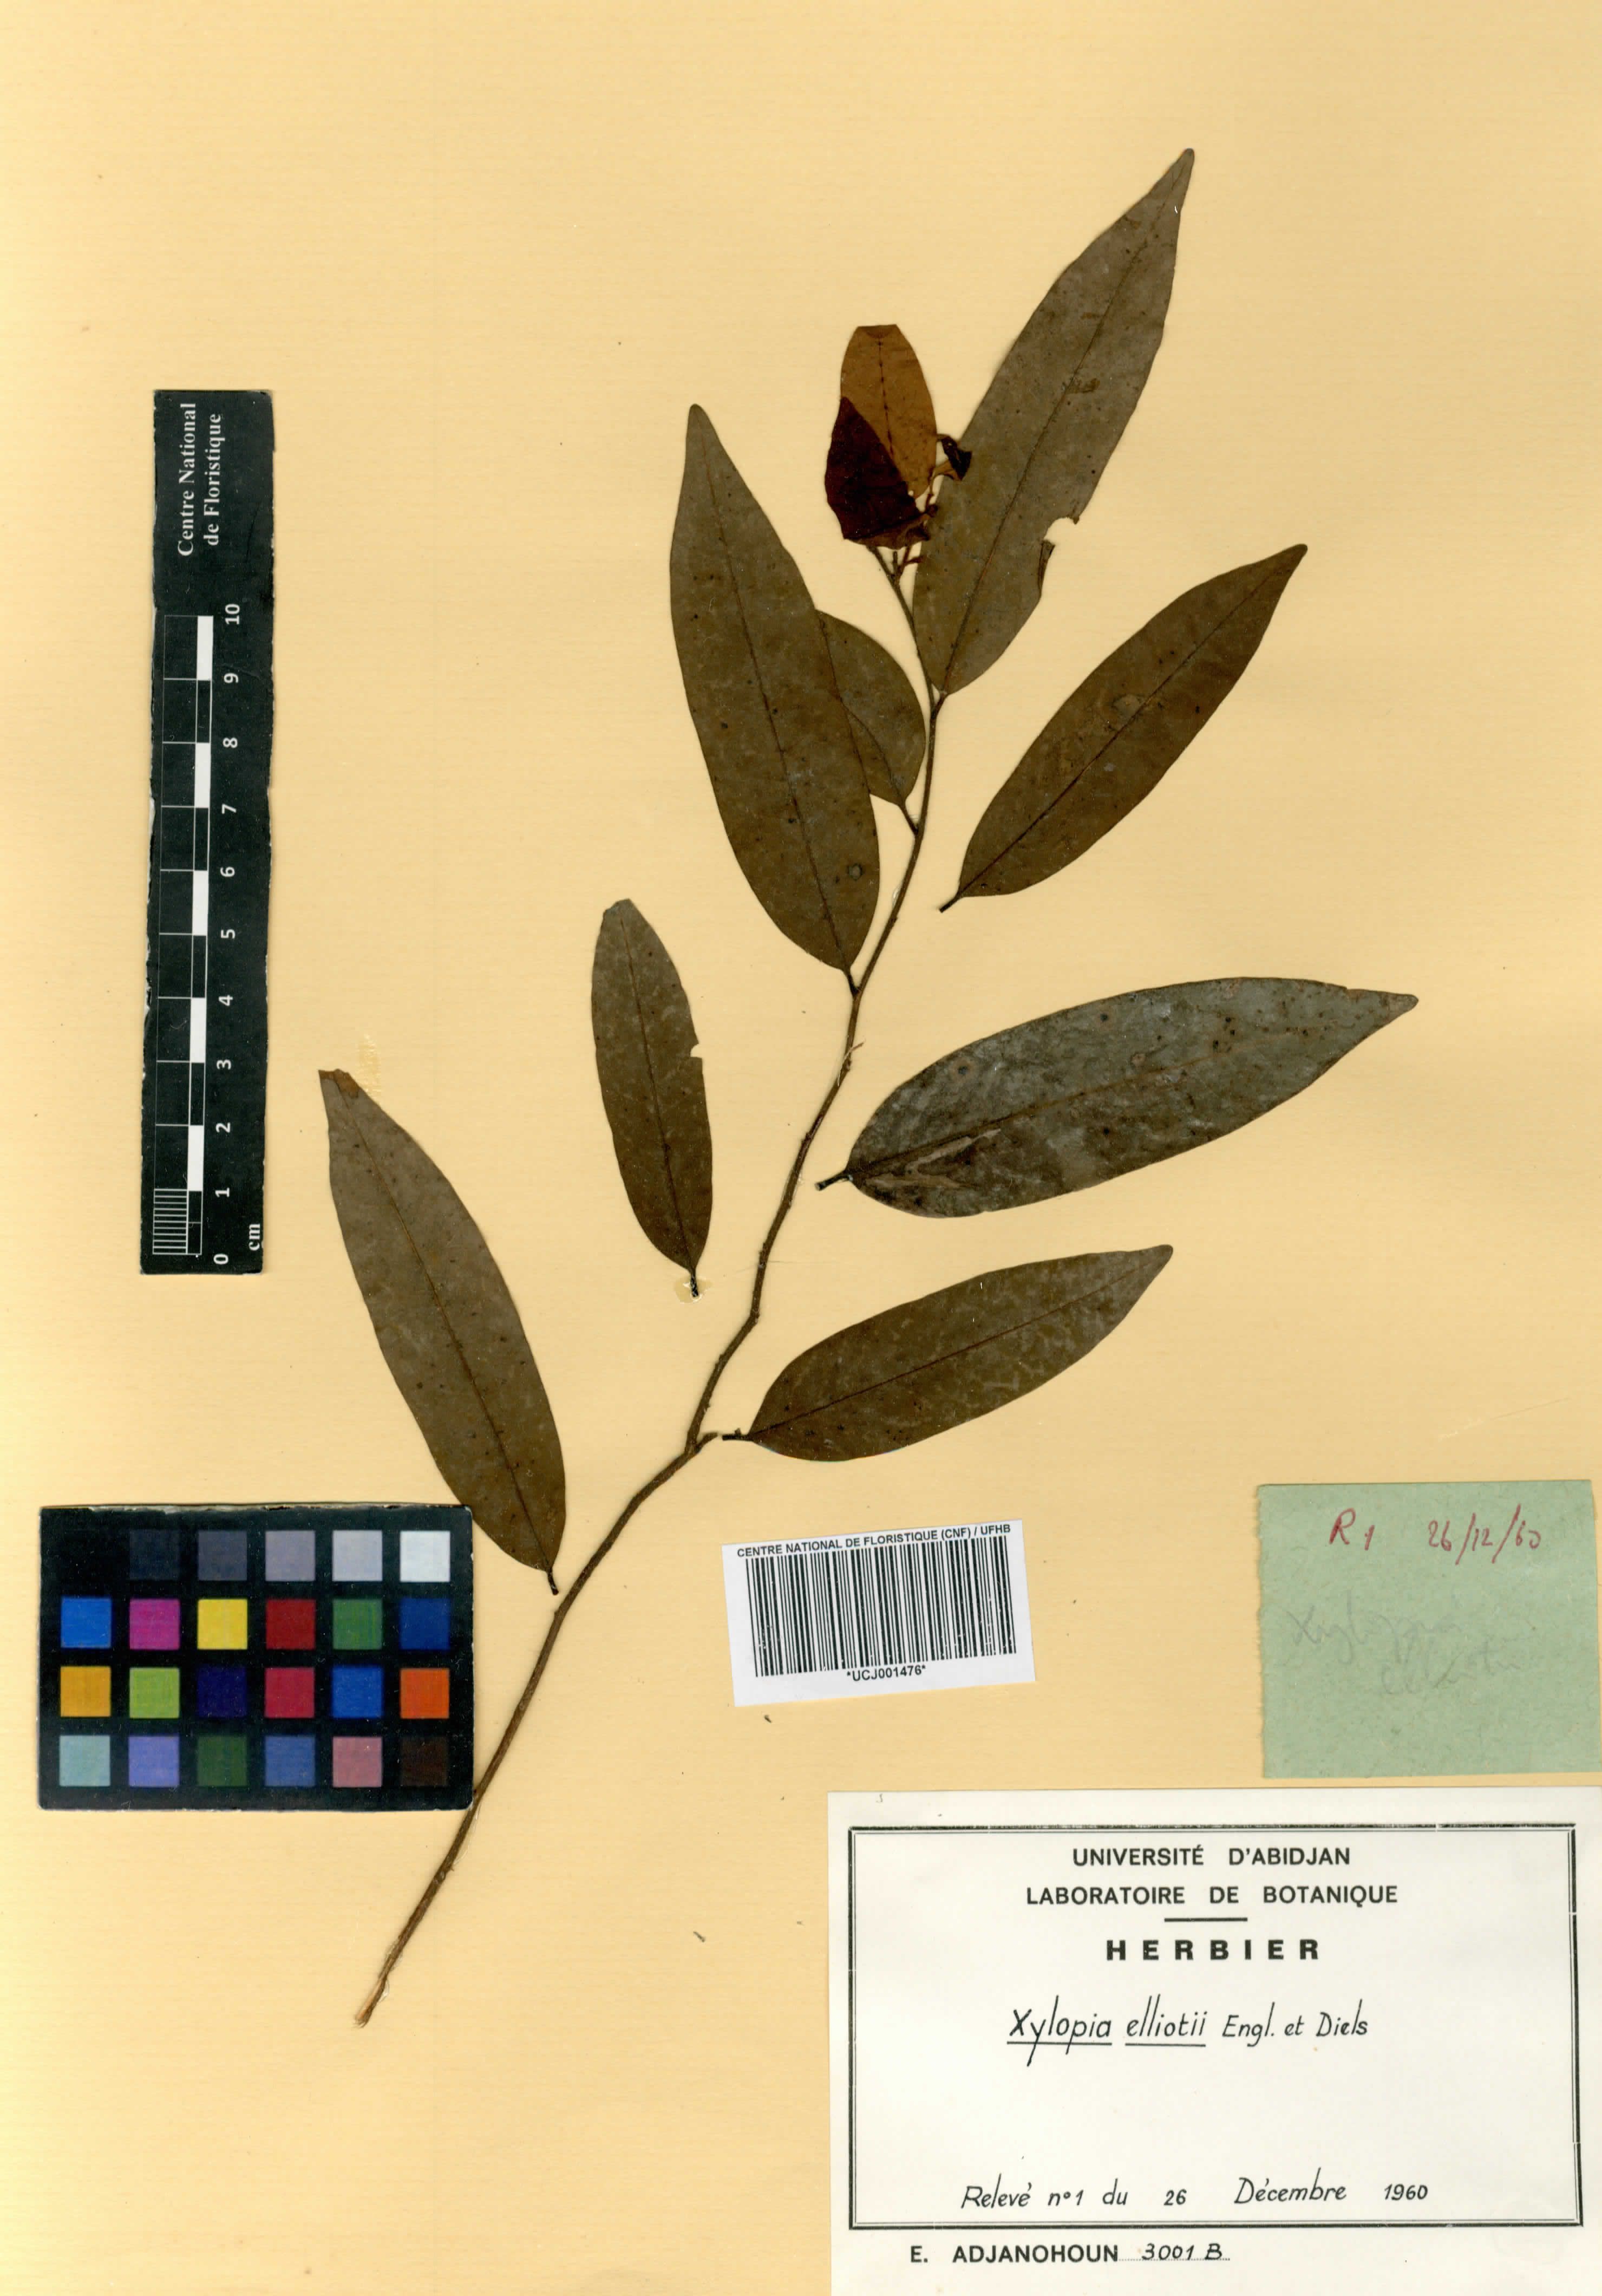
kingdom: Plantae
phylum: Tracheophyta
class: Magnoliopsida
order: Magnoliales
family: Annonaceae
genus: Xylopia
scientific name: Xylopia elliotii
